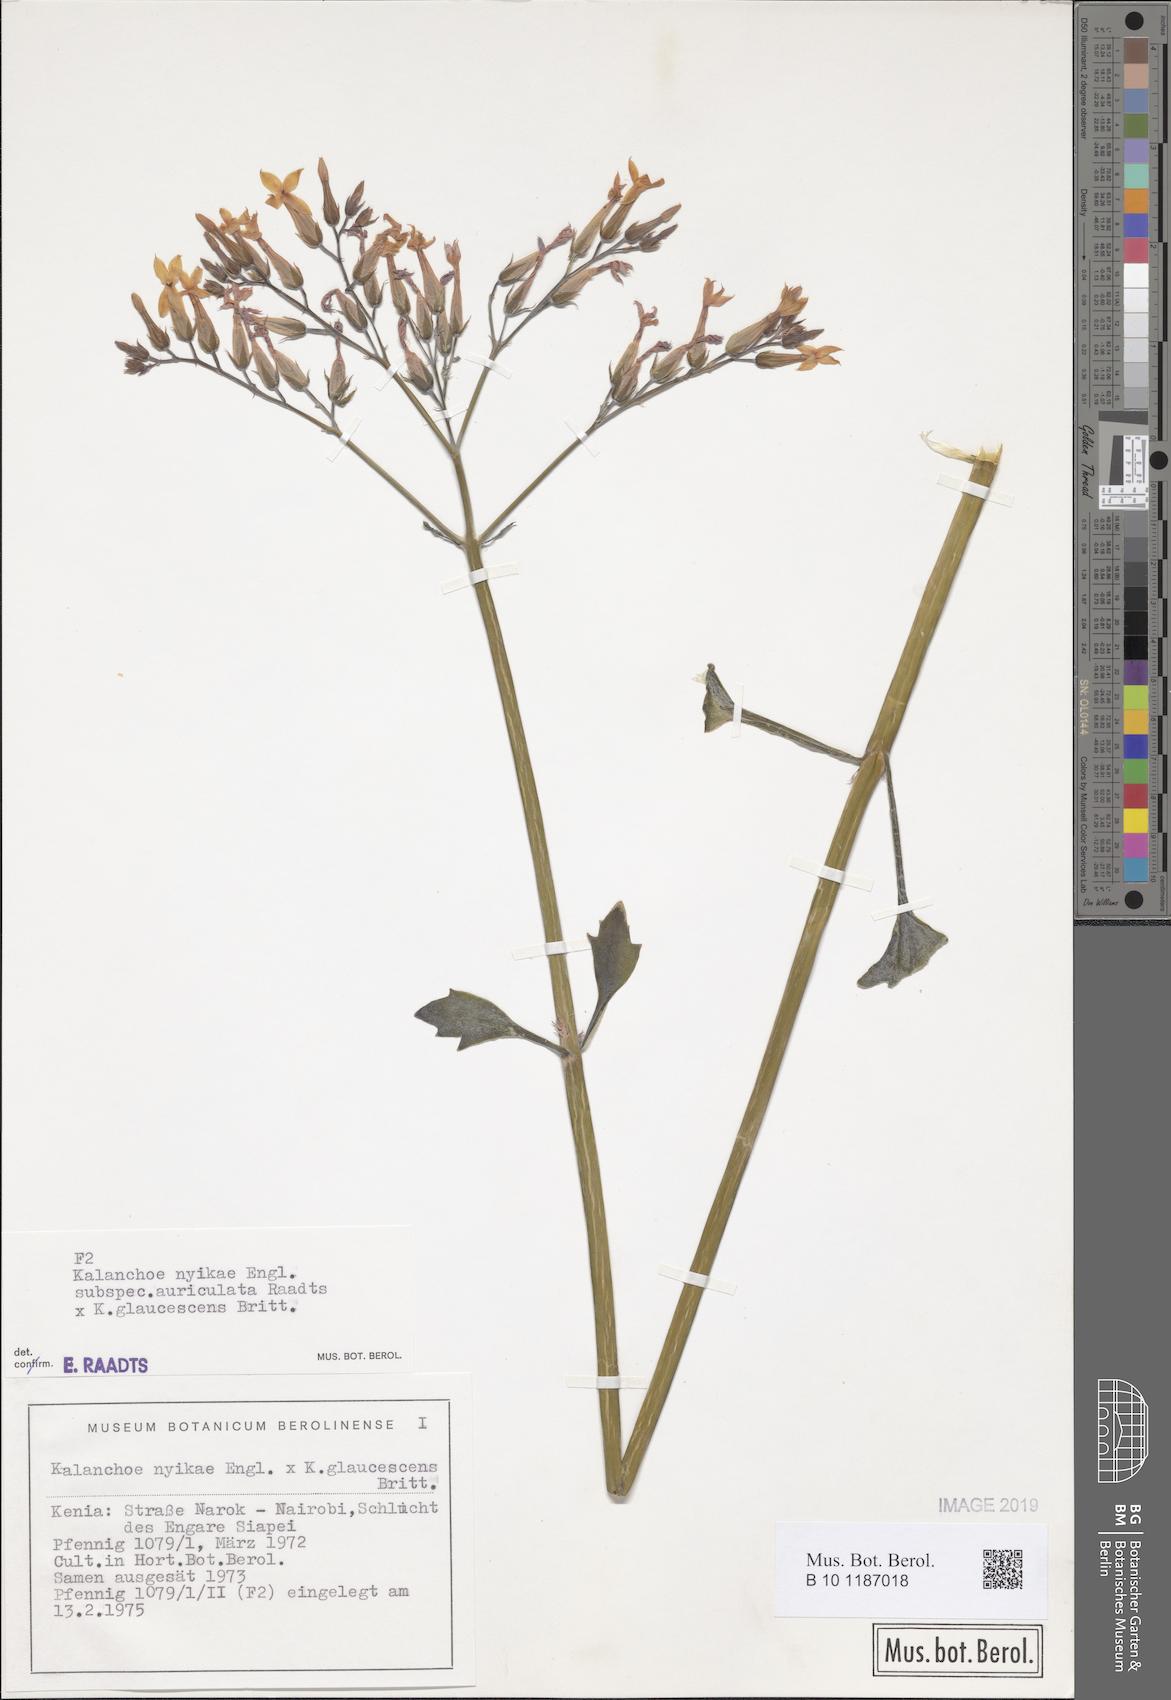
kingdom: Plantae
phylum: Tracheophyta
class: Magnoliopsida
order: Saxifragales
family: Crassulaceae
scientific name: Crassulaceae
